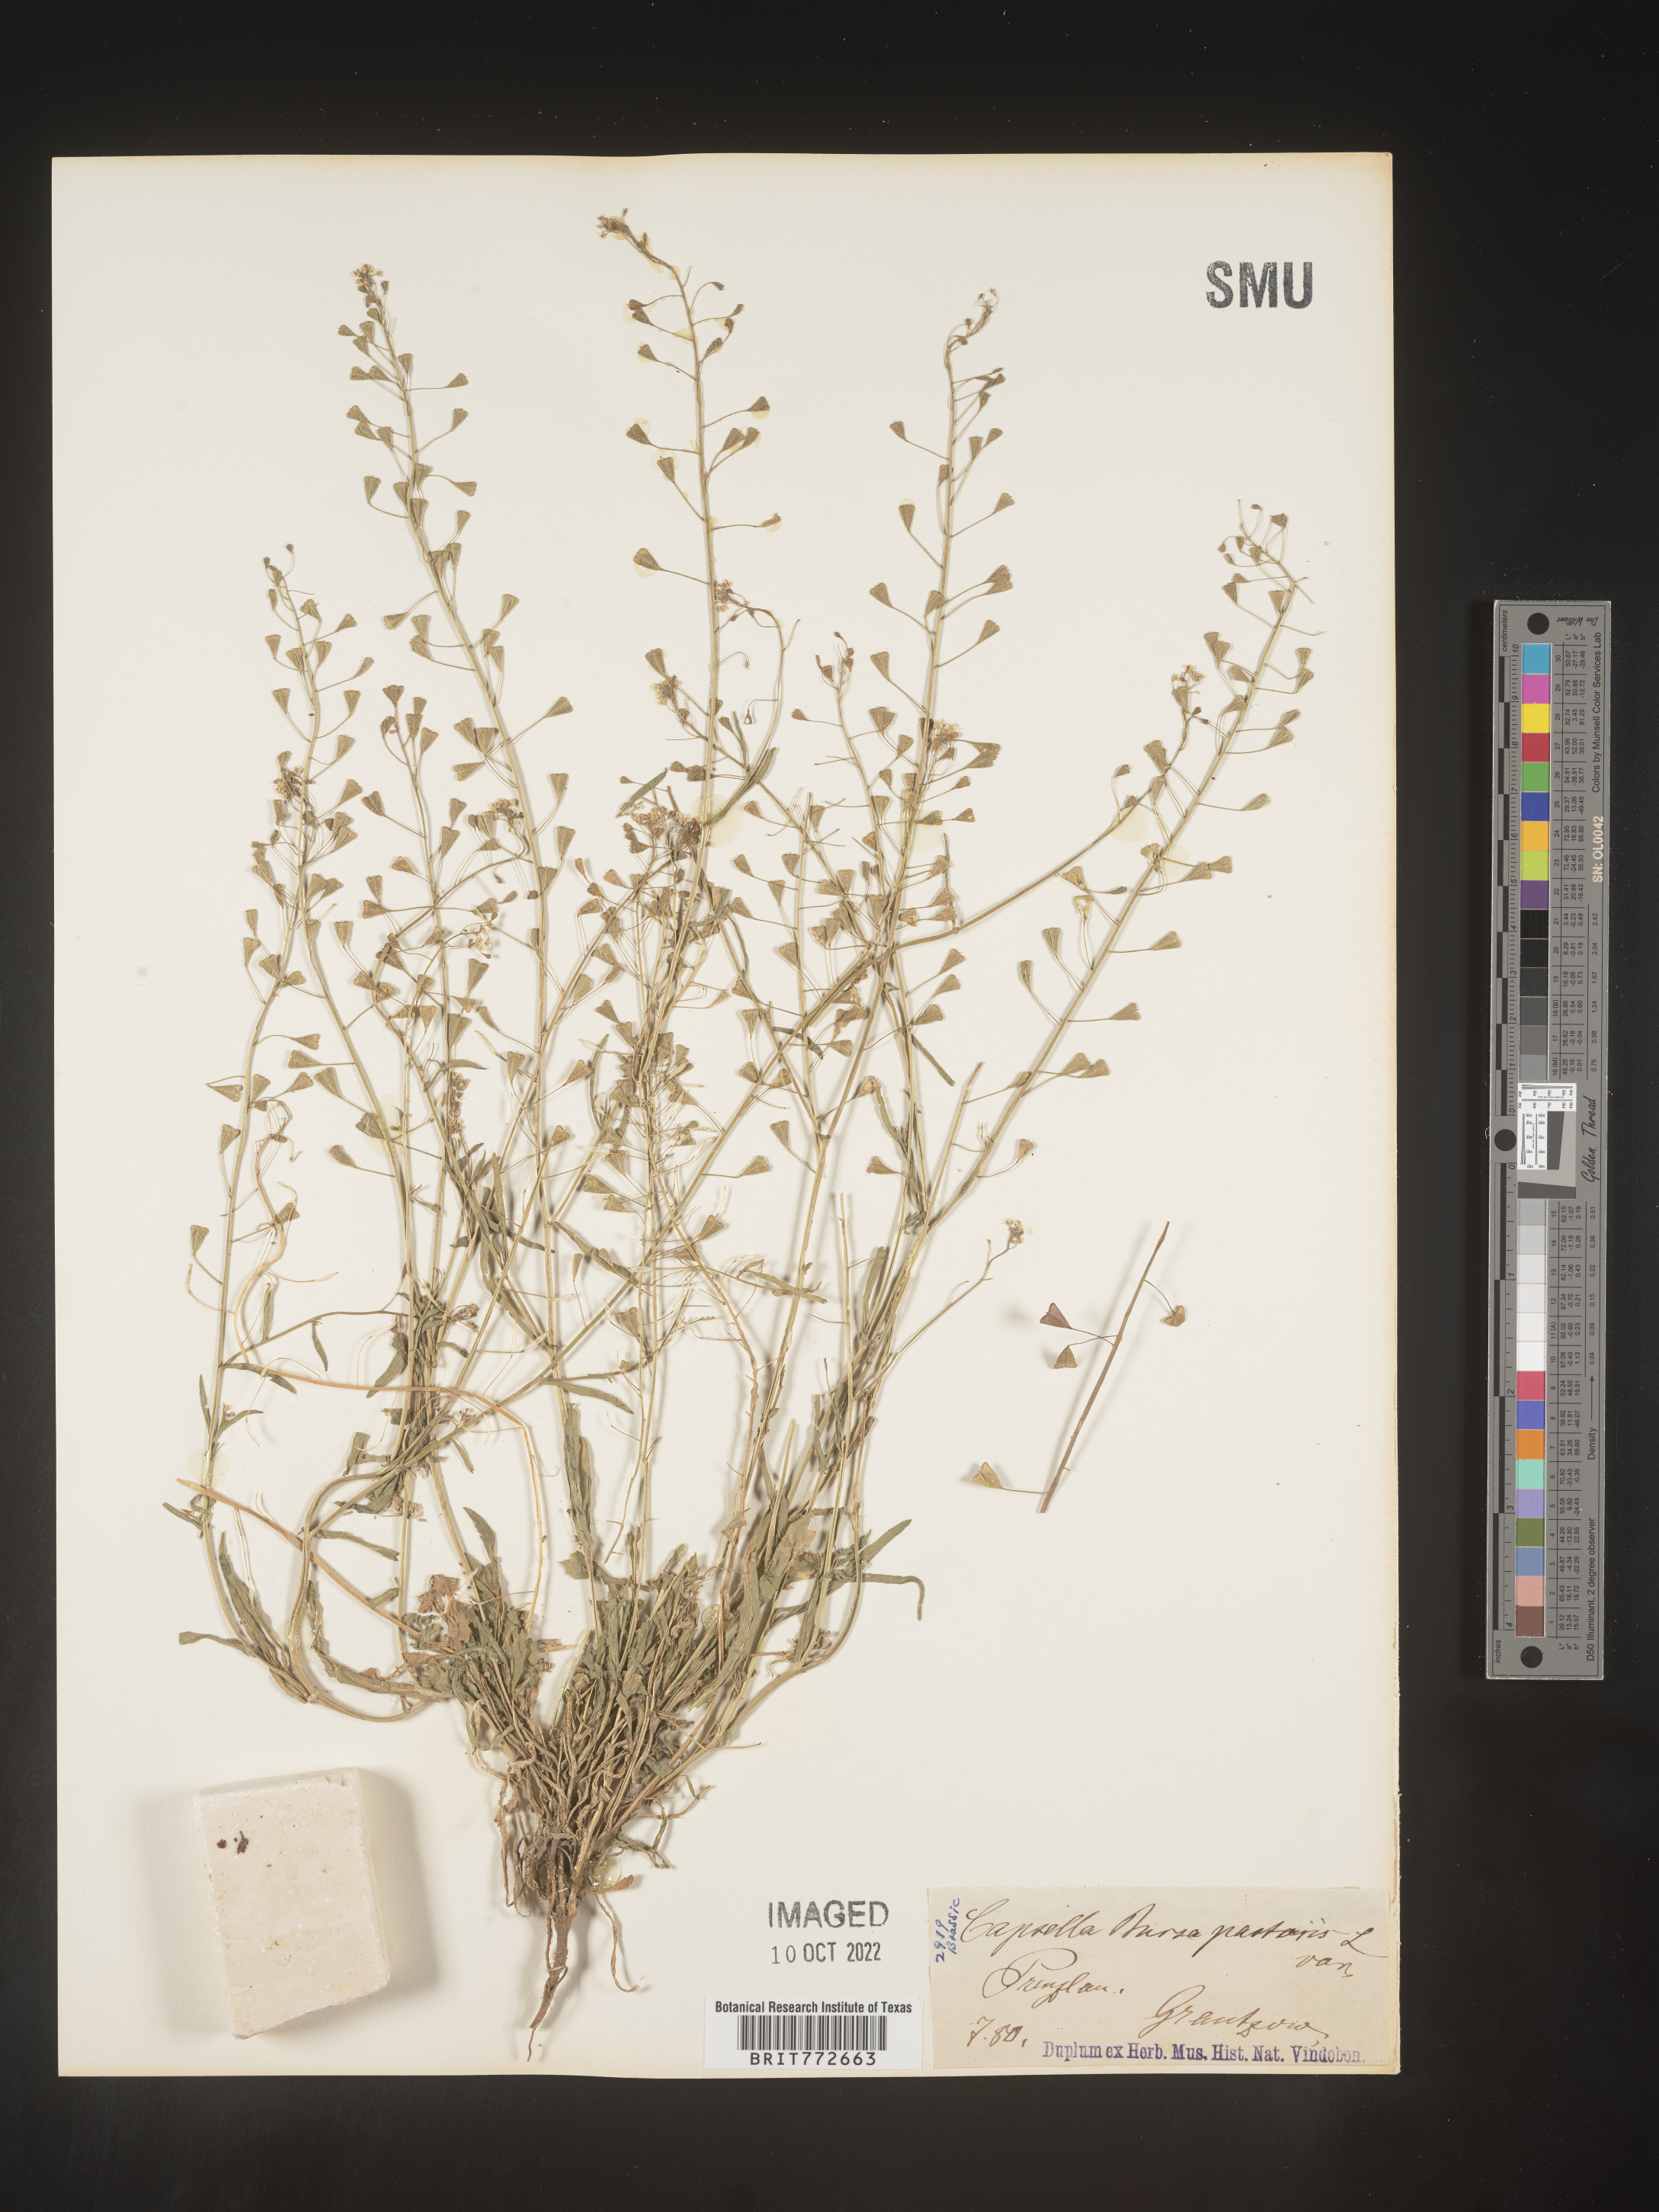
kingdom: Plantae
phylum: Tracheophyta
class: Magnoliopsida
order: Brassicales
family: Brassicaceae
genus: Capsella
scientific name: Capsella
